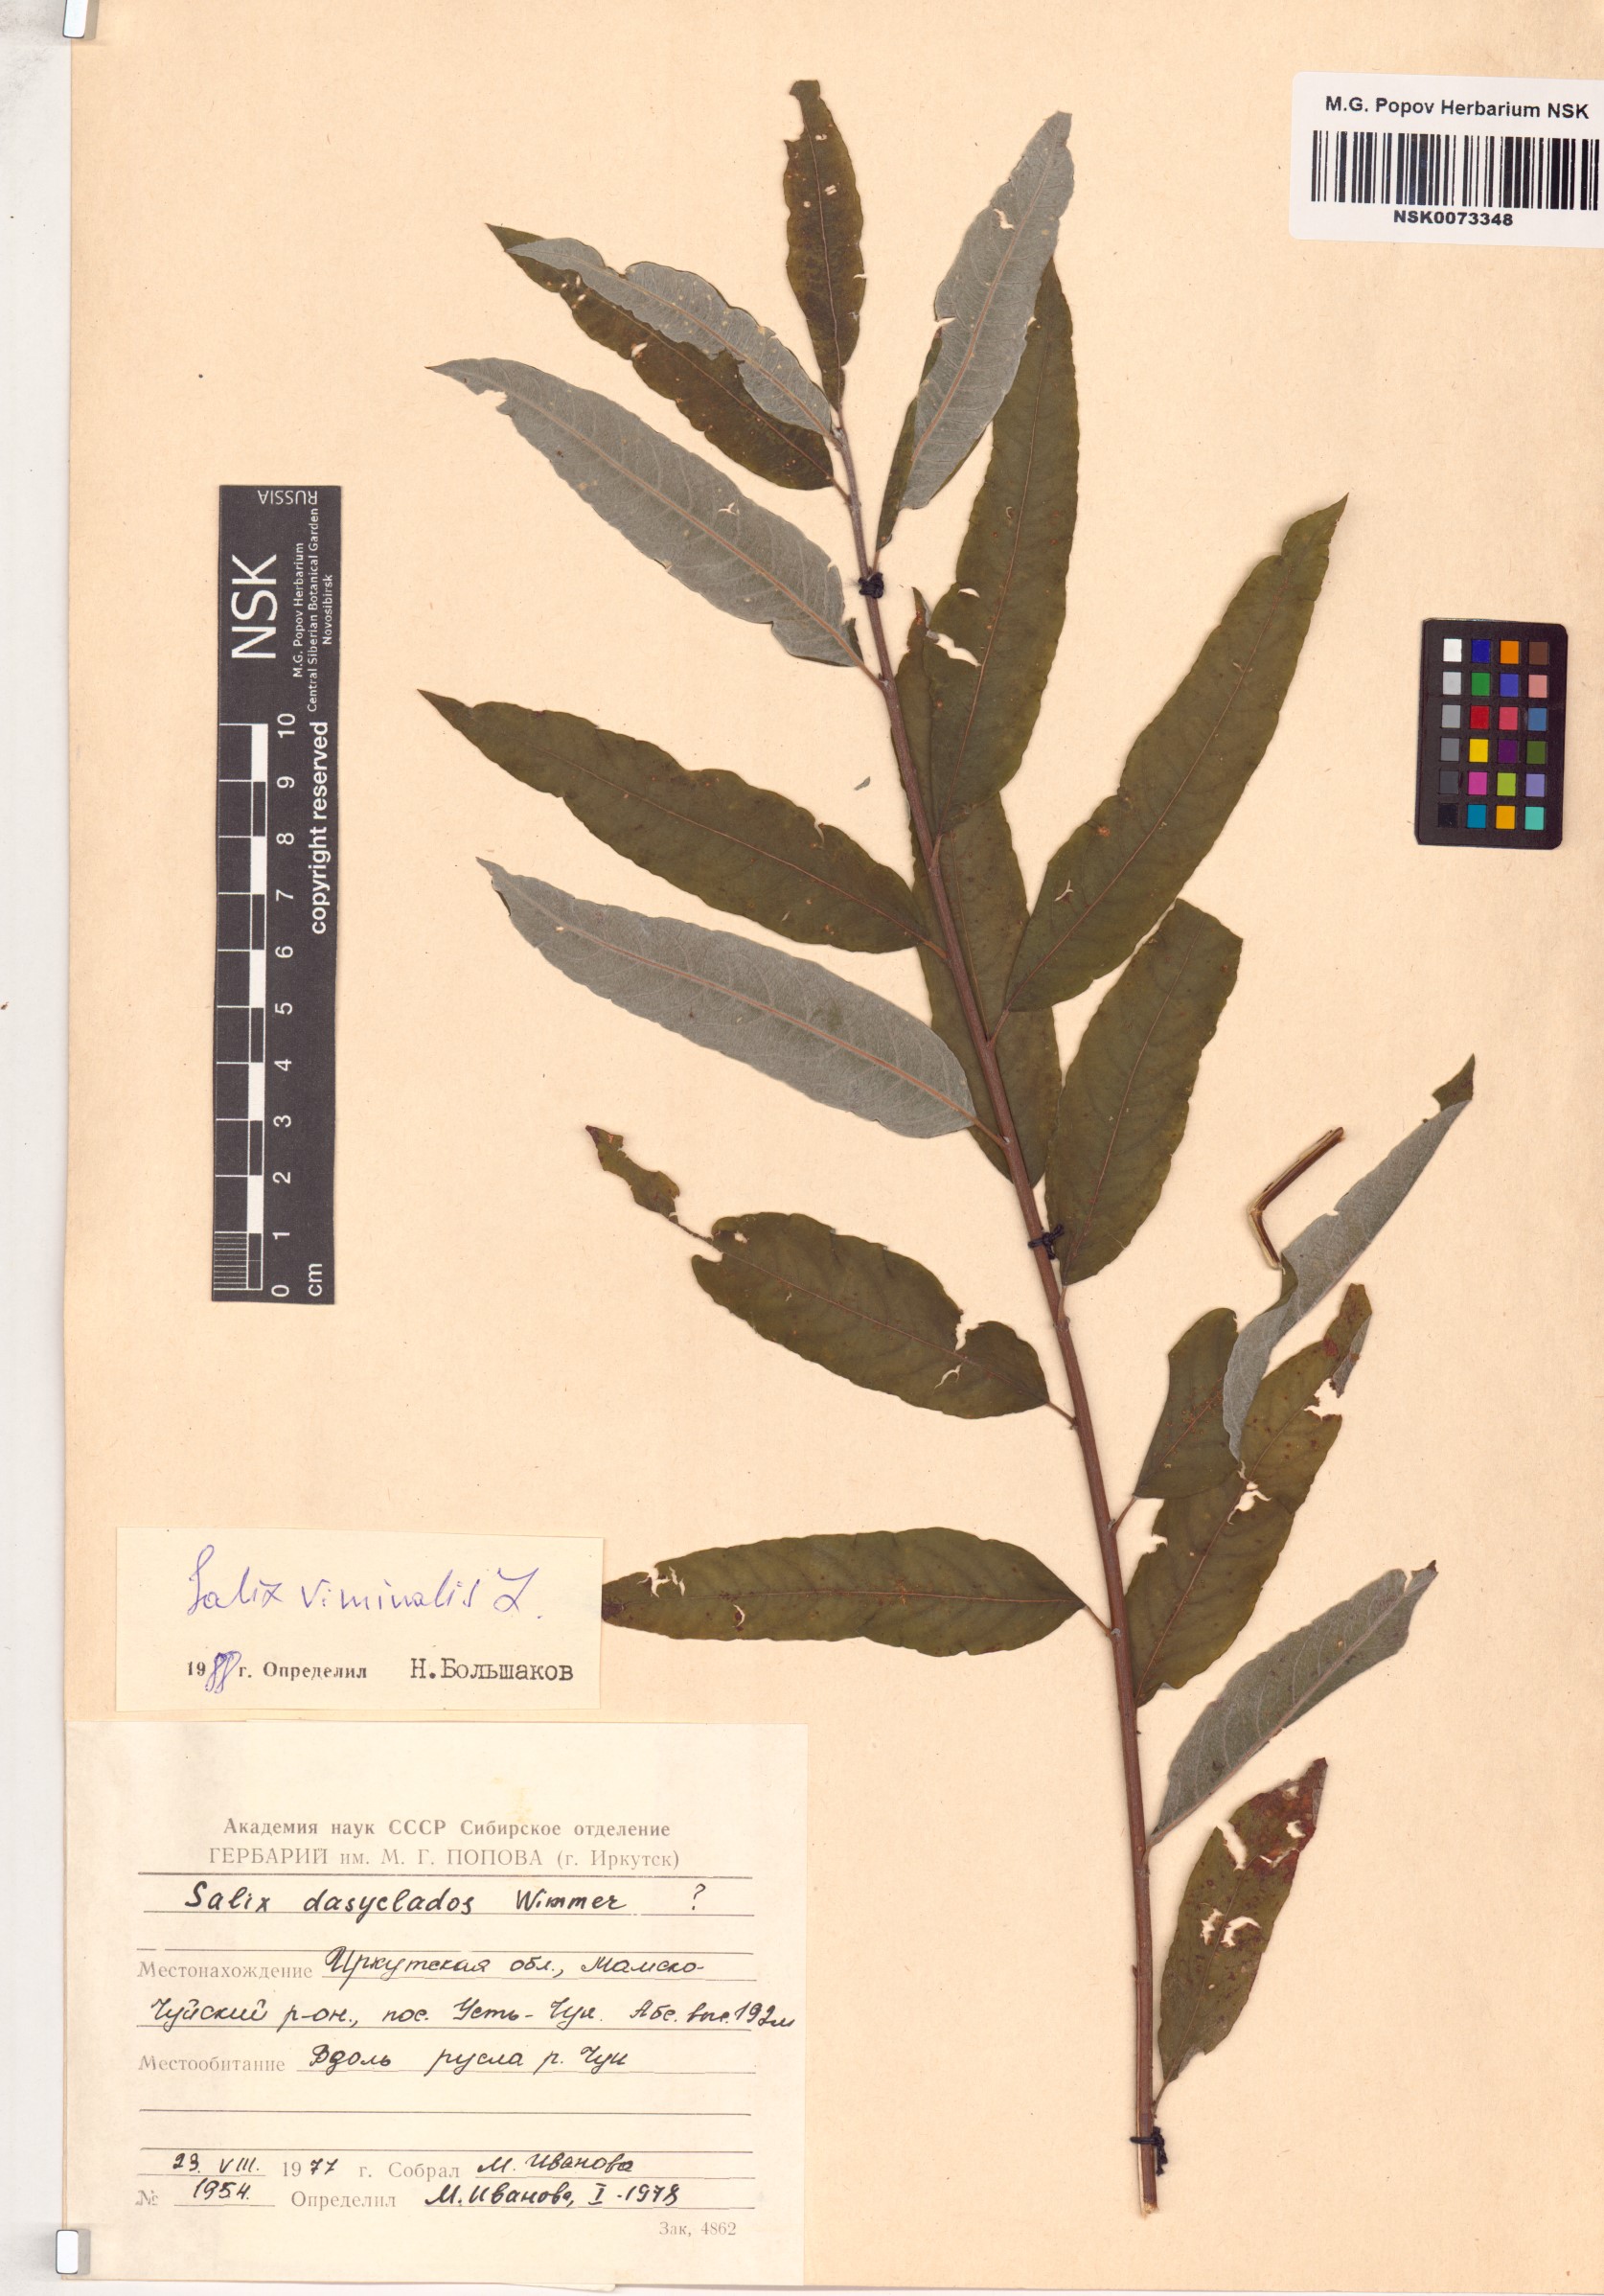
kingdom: Plantae
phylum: Tracheophyta
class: Magnoliopsida
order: Malpighiales
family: Salicaceae
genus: Salix
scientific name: Salix viminalis
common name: Osier
